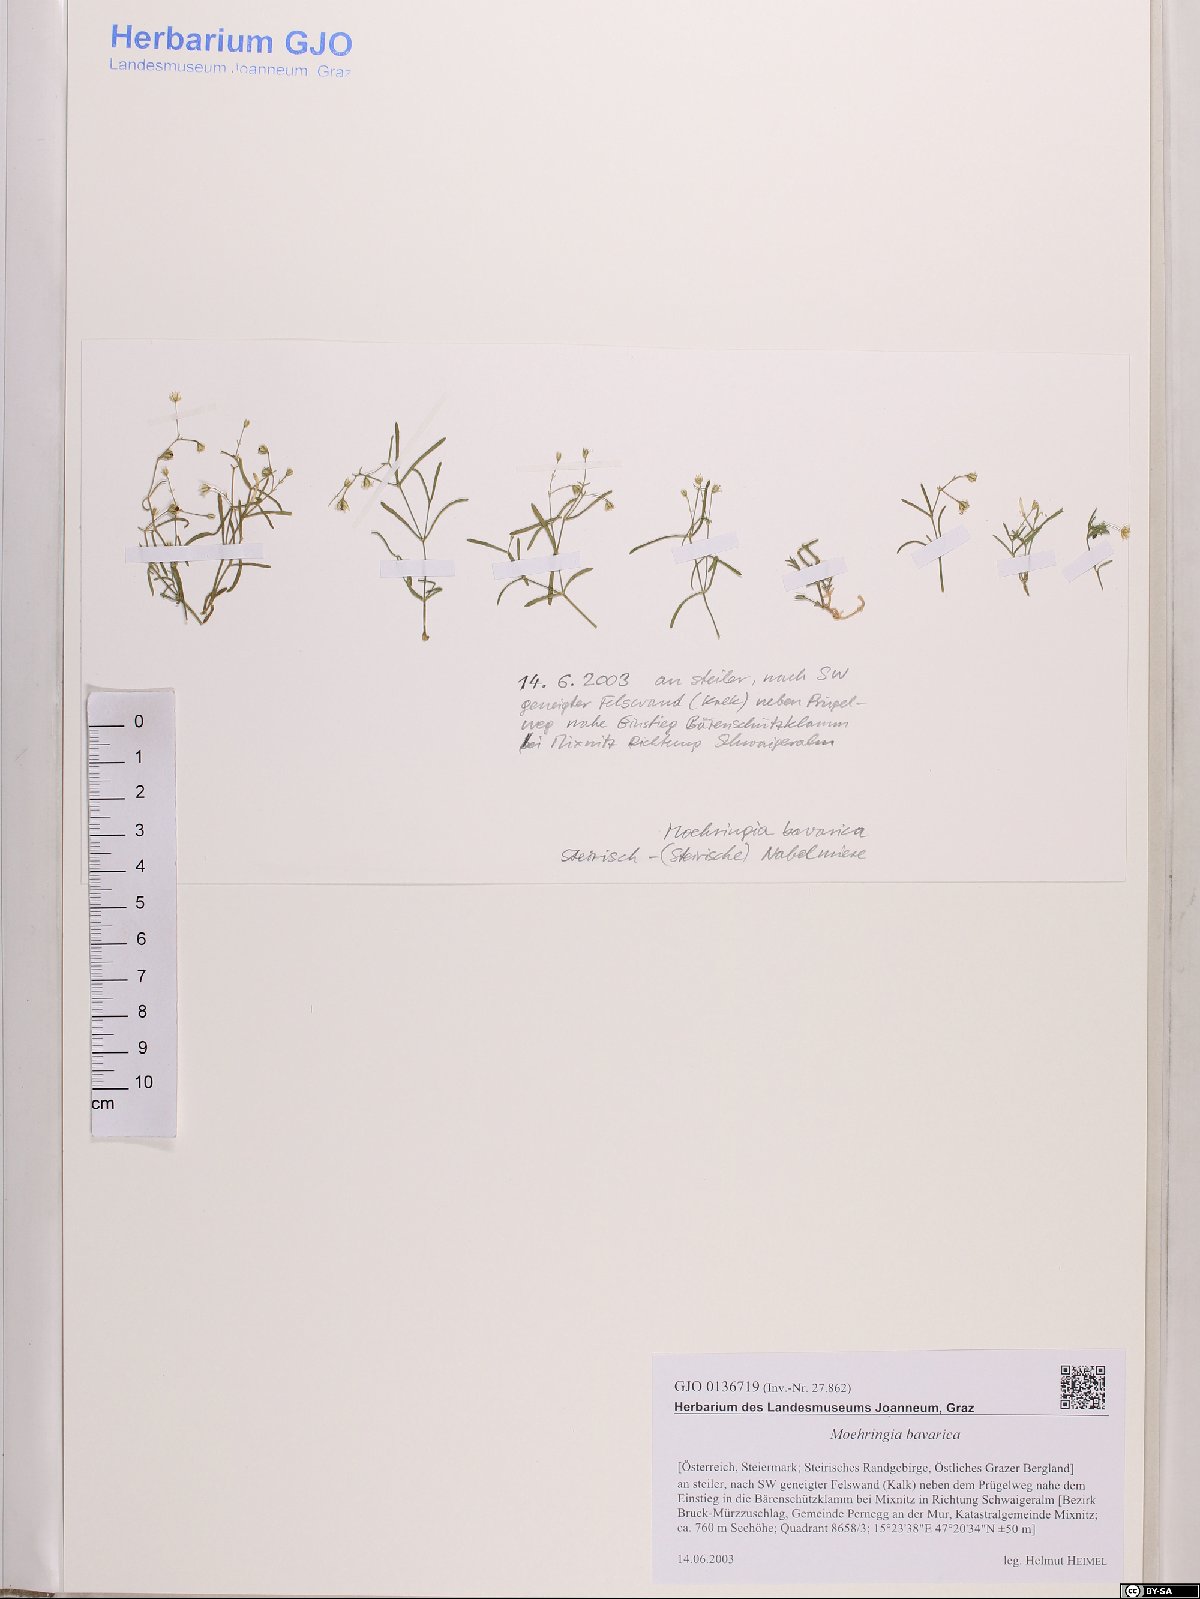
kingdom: Plantae
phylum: Tracheophyta
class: Magnoliopsida
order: Caryophyllales
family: Caryophyllaceae
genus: Moehringia
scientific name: Moehringia bavarica
